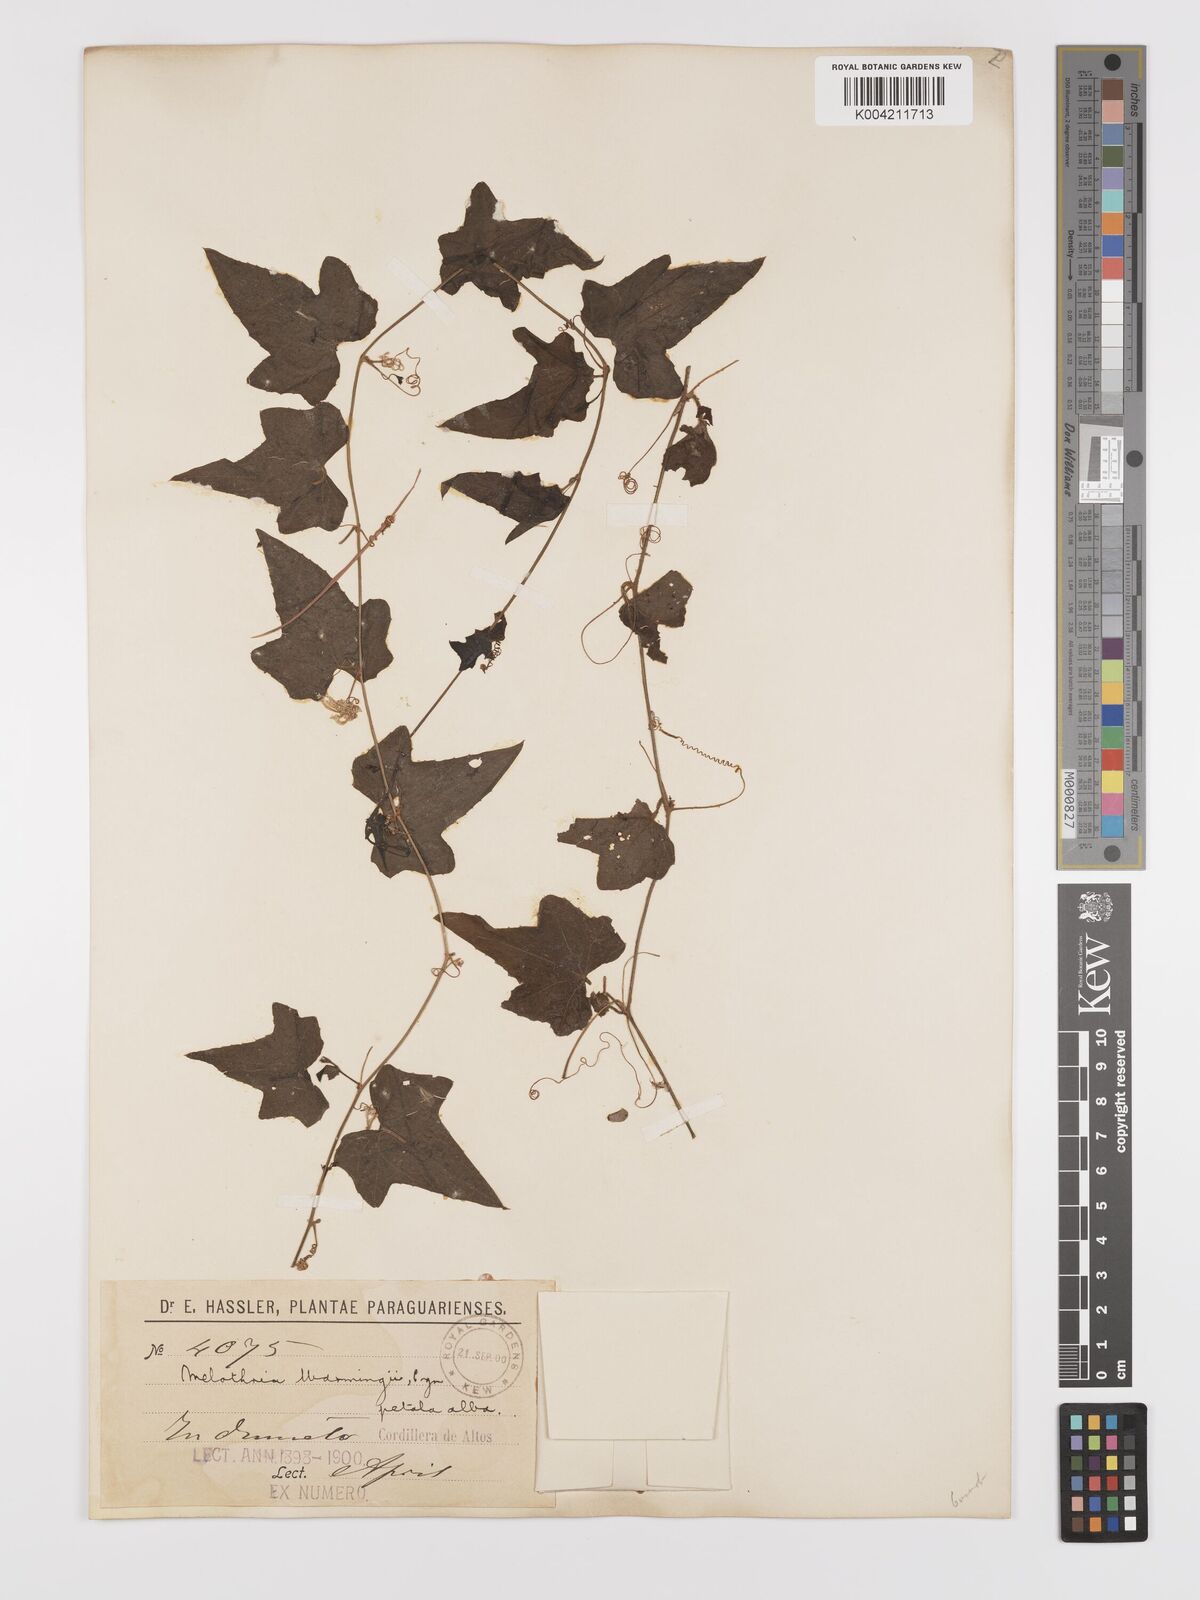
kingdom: Plantae
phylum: Tracheophyta
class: Magnoliopsida
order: Cucurbitales
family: Cucurbitaceae
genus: Melothria
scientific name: Melothria warmingii
